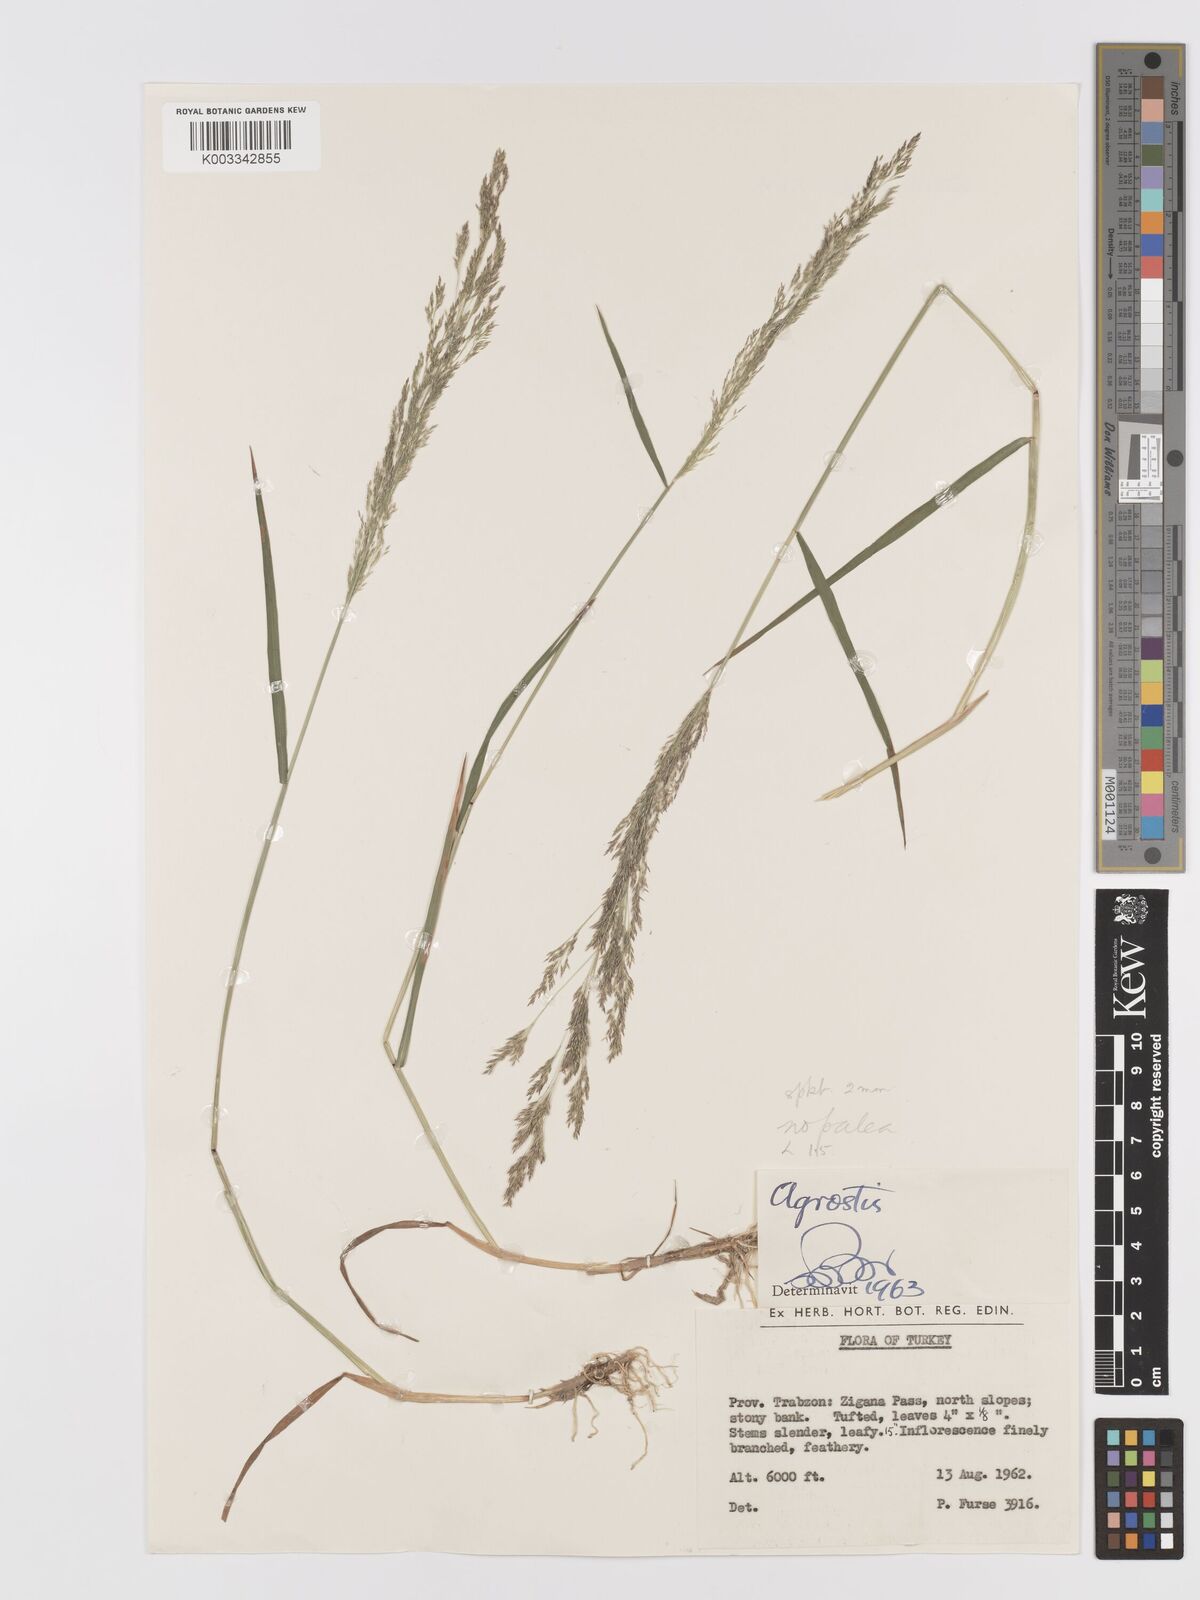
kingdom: Plantae
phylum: Tracheophyta
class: Liliopsida
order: Poales
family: Poaceae
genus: Agrostis
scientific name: Agrostis
